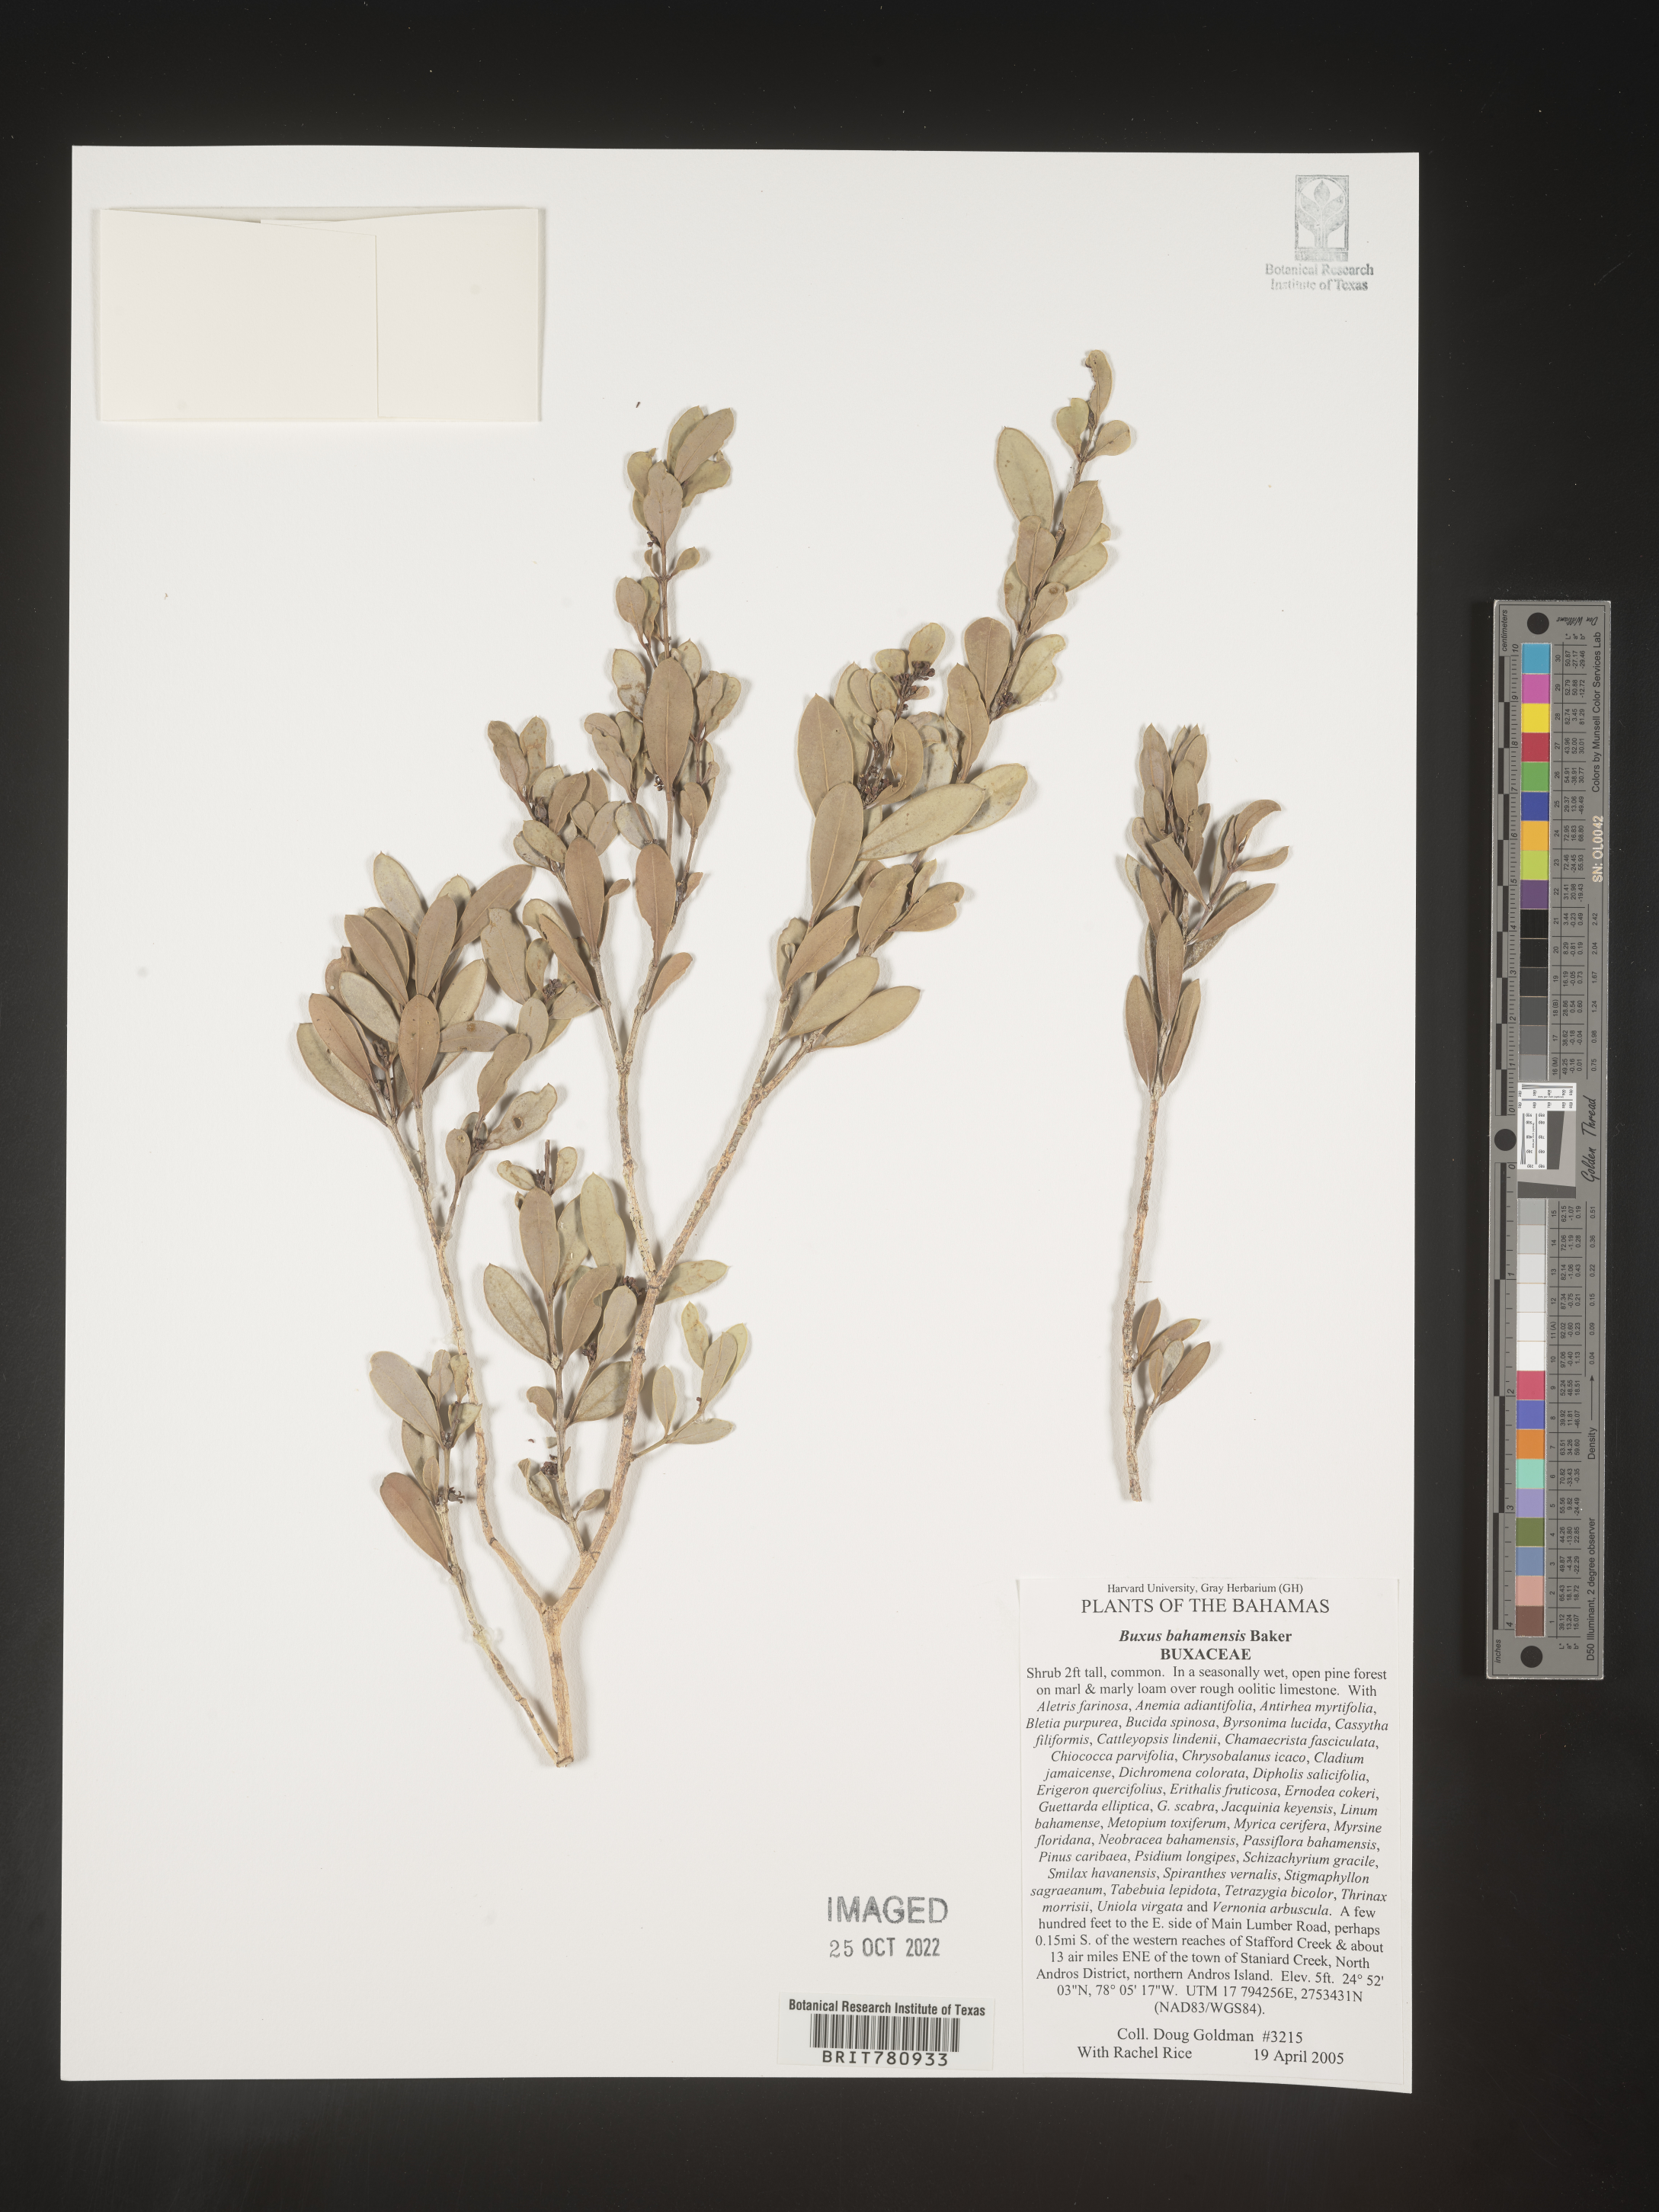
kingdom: Plantae
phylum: Tracheophyta
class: Magnoliopsida
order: Buxales
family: Buxaceae
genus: Buxus
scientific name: Buxus
